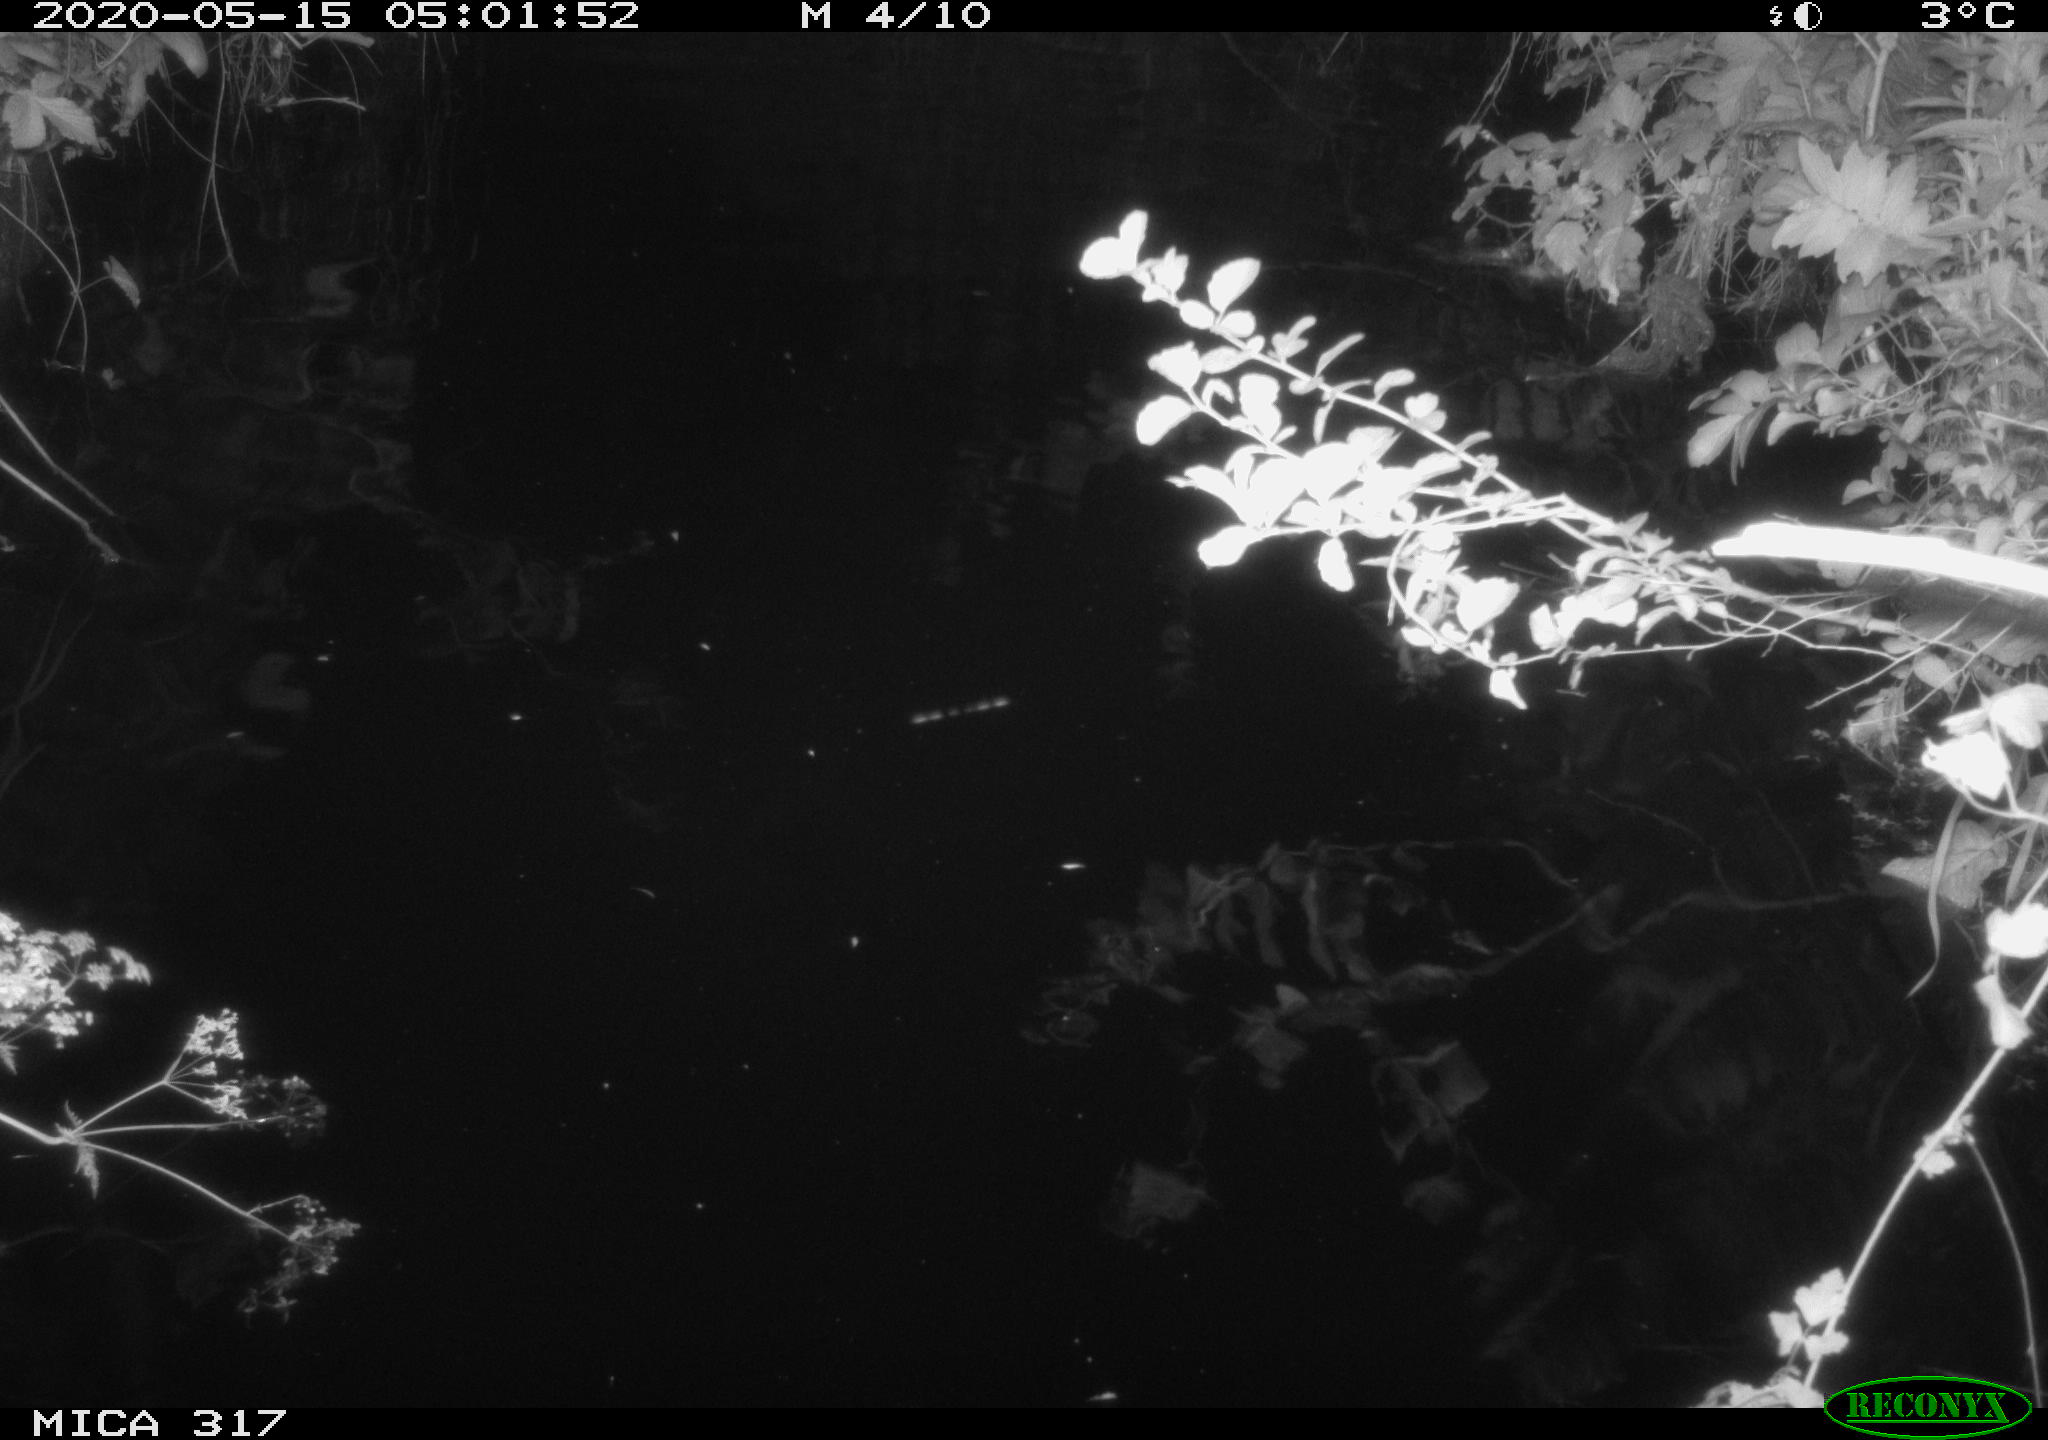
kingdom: Animalia
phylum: Chordata
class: Aves
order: Anseriformes
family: Anatidae
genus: Anas
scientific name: Anas platyrhynchos
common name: Mallard
